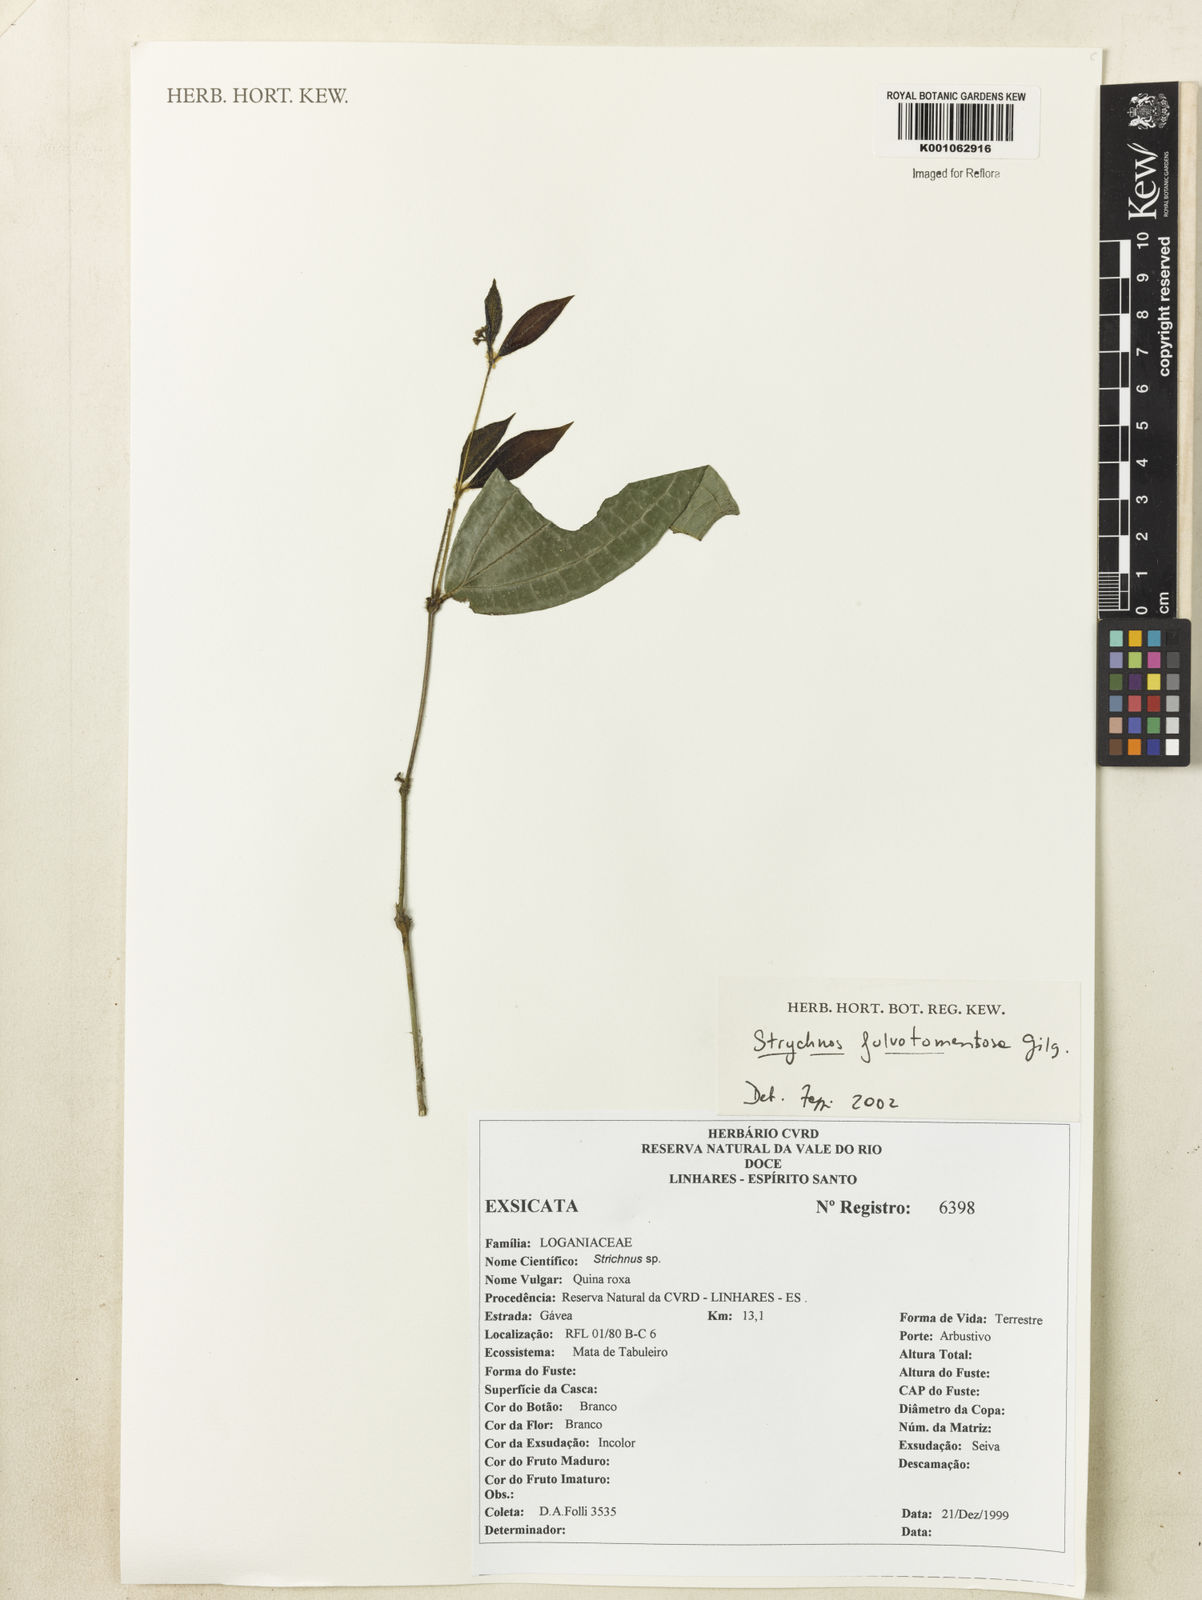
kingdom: Plantae
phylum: Tracheophyta
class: Magnoliopsida
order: Gentianales
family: Loganiaceae
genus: Strychnos
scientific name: Strychnos fulvotomentosa
